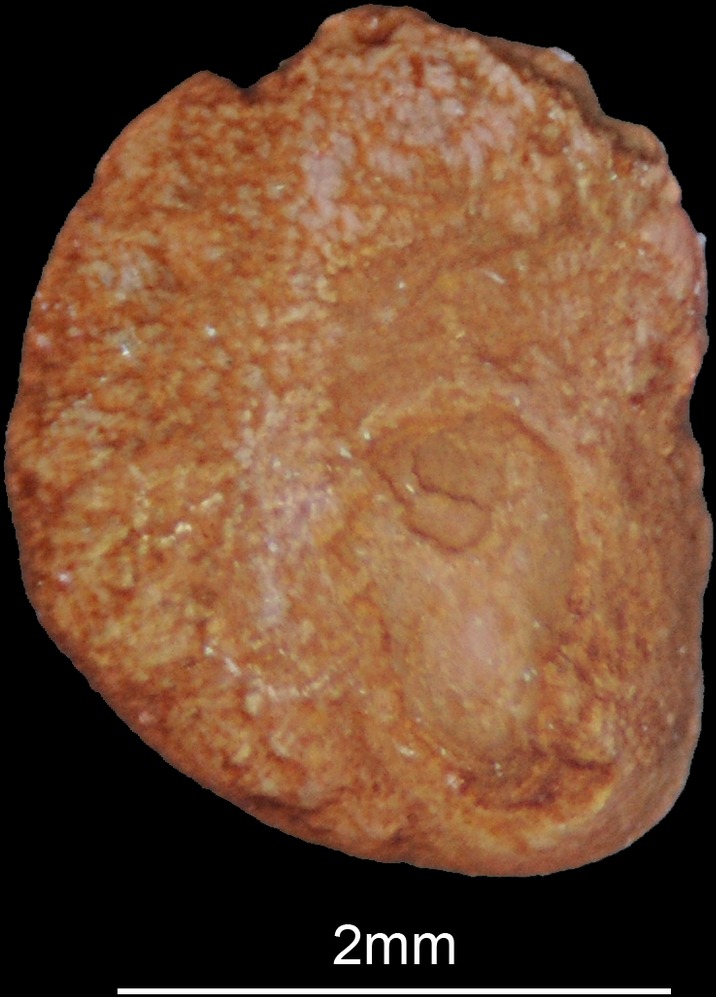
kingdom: Animalia
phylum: Chordata
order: Polypteriformes
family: Polypteridae
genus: Polypterus
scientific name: Polypterus senegalus
